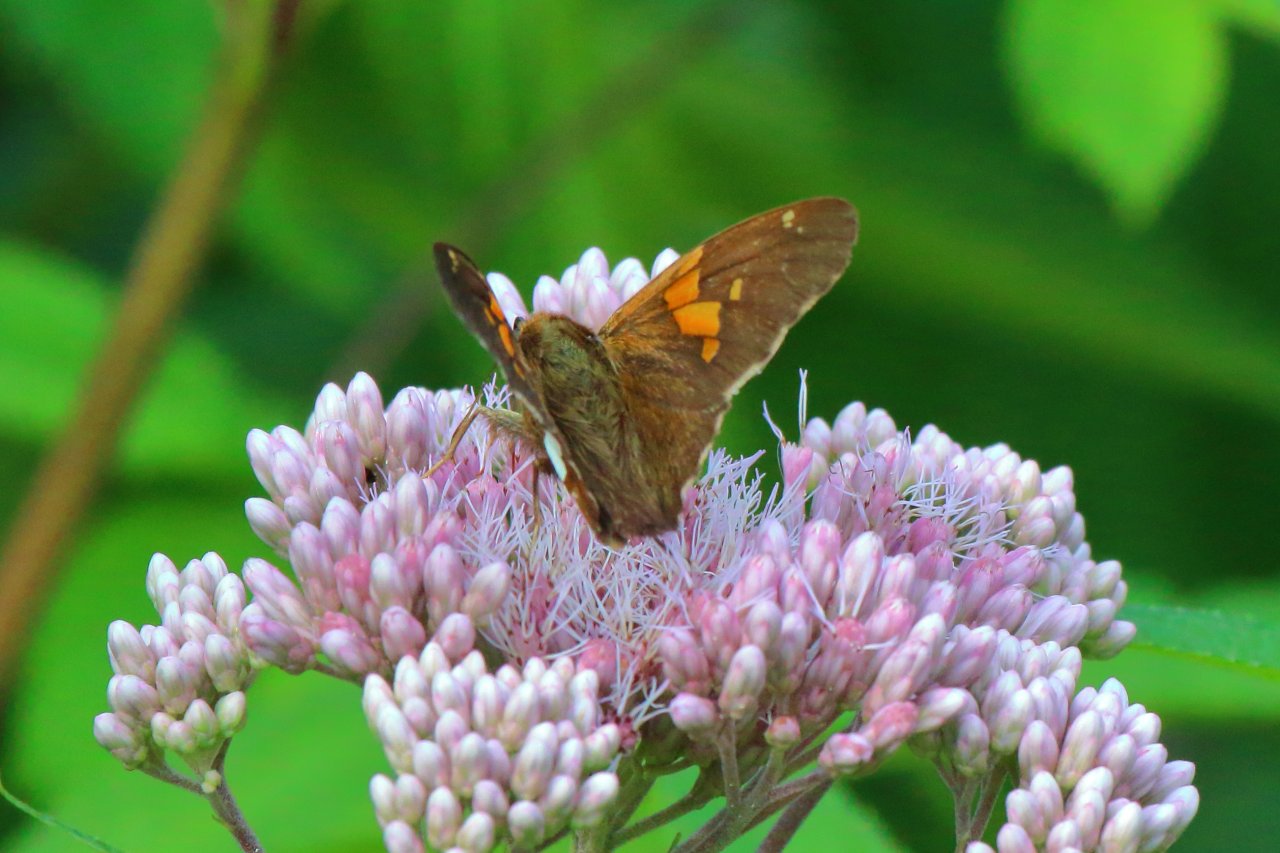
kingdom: Animalia
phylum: Arthropoda
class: Insecta
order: Lepidoptera
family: Hesperiidae
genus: Epargyreus
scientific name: Epargyreus clarus
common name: Silver-spotted Skipper
